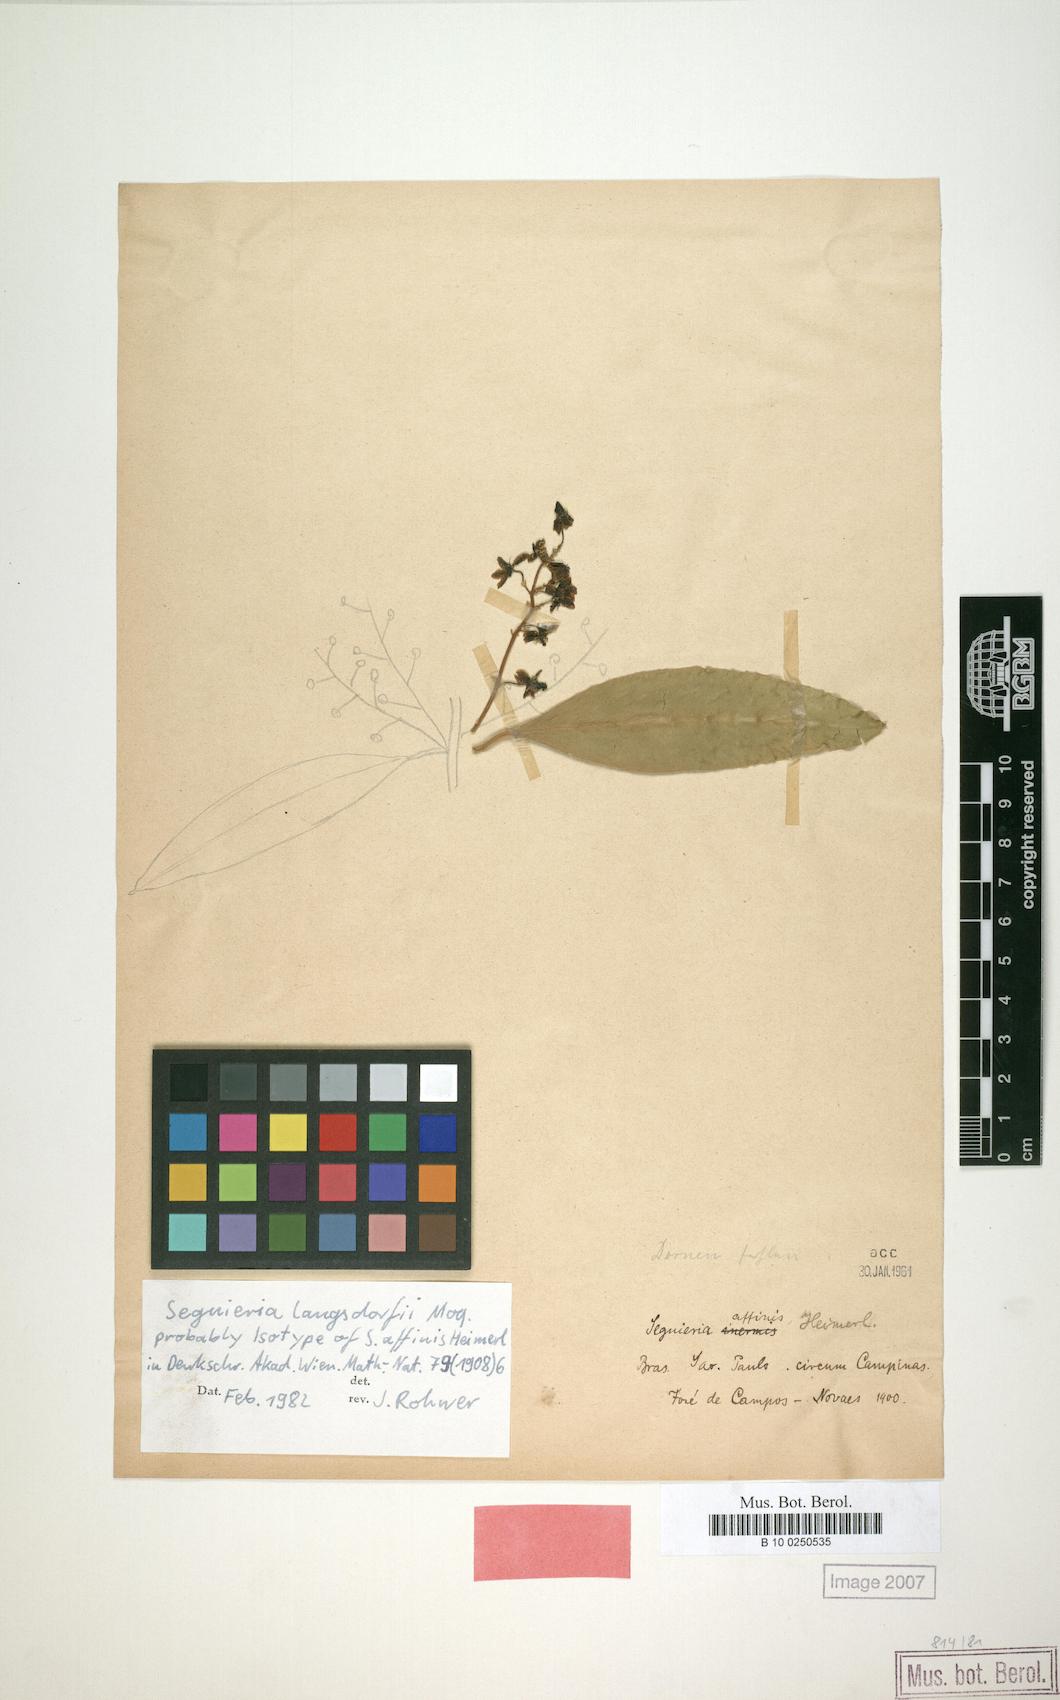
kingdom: Plantae
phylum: Tracheophyta
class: Magnoliopsida
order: Caryophyllales
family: Phytolaccaceae
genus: Seguieria
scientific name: Seguieria langsdorffii
